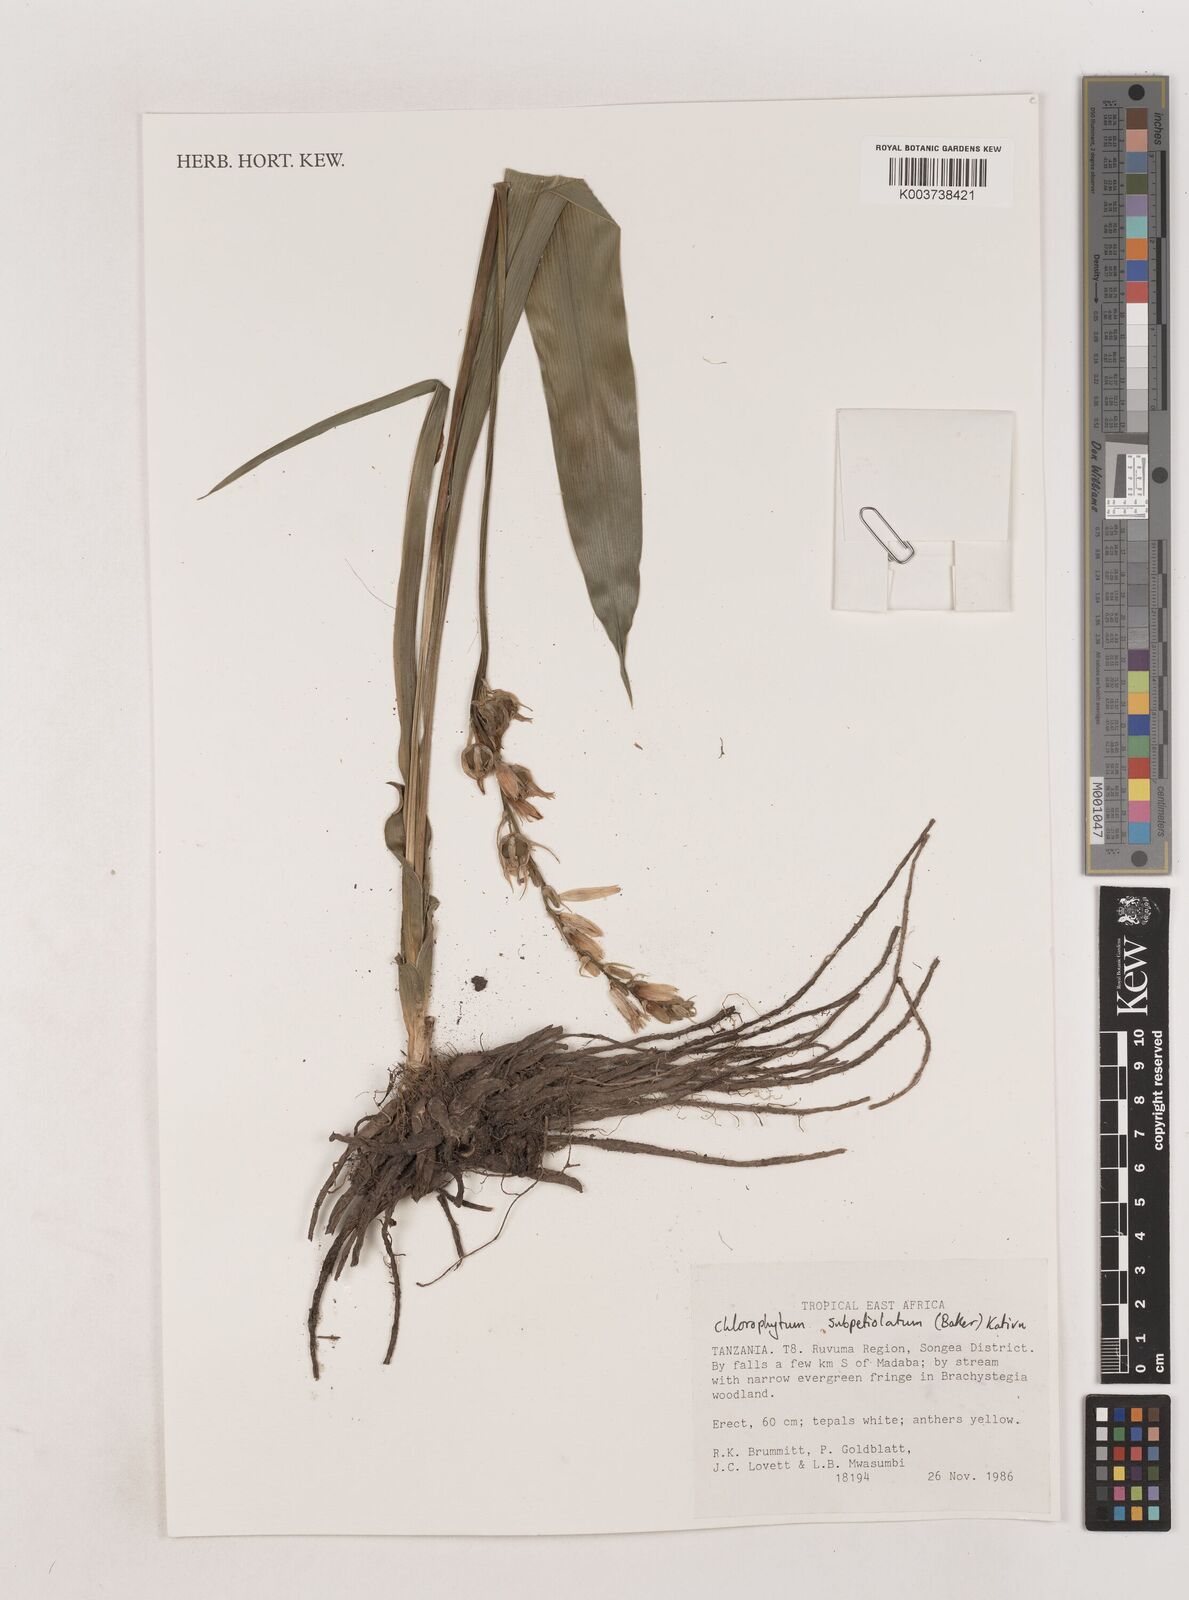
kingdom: Plantae
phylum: Tracheophyta
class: Liliopsida
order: Asparagales
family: Asparagaceae
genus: Chlorophytum
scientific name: Chlorophytum subpetiolatum
